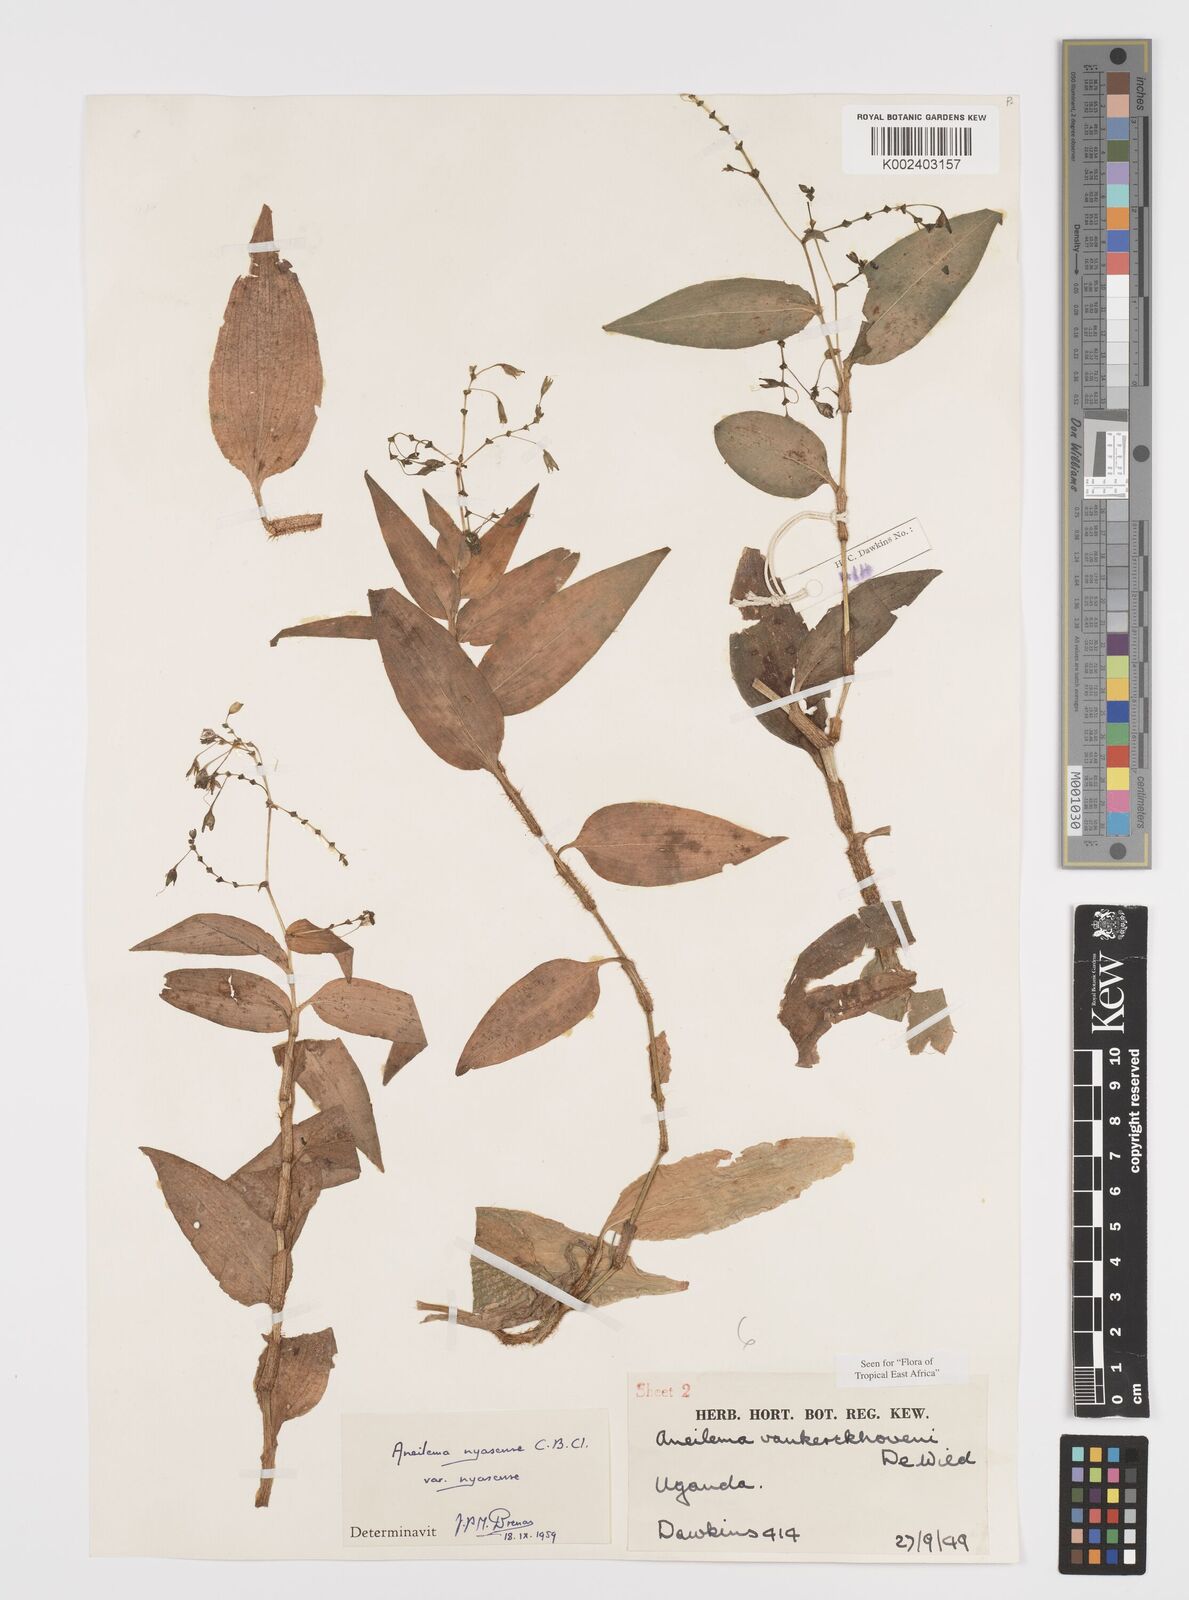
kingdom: Plantae
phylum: Tracheophyta
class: Liliopsida
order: Commelinales
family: Commelinaceae
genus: Aneilema
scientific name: Aneilema nyasense
